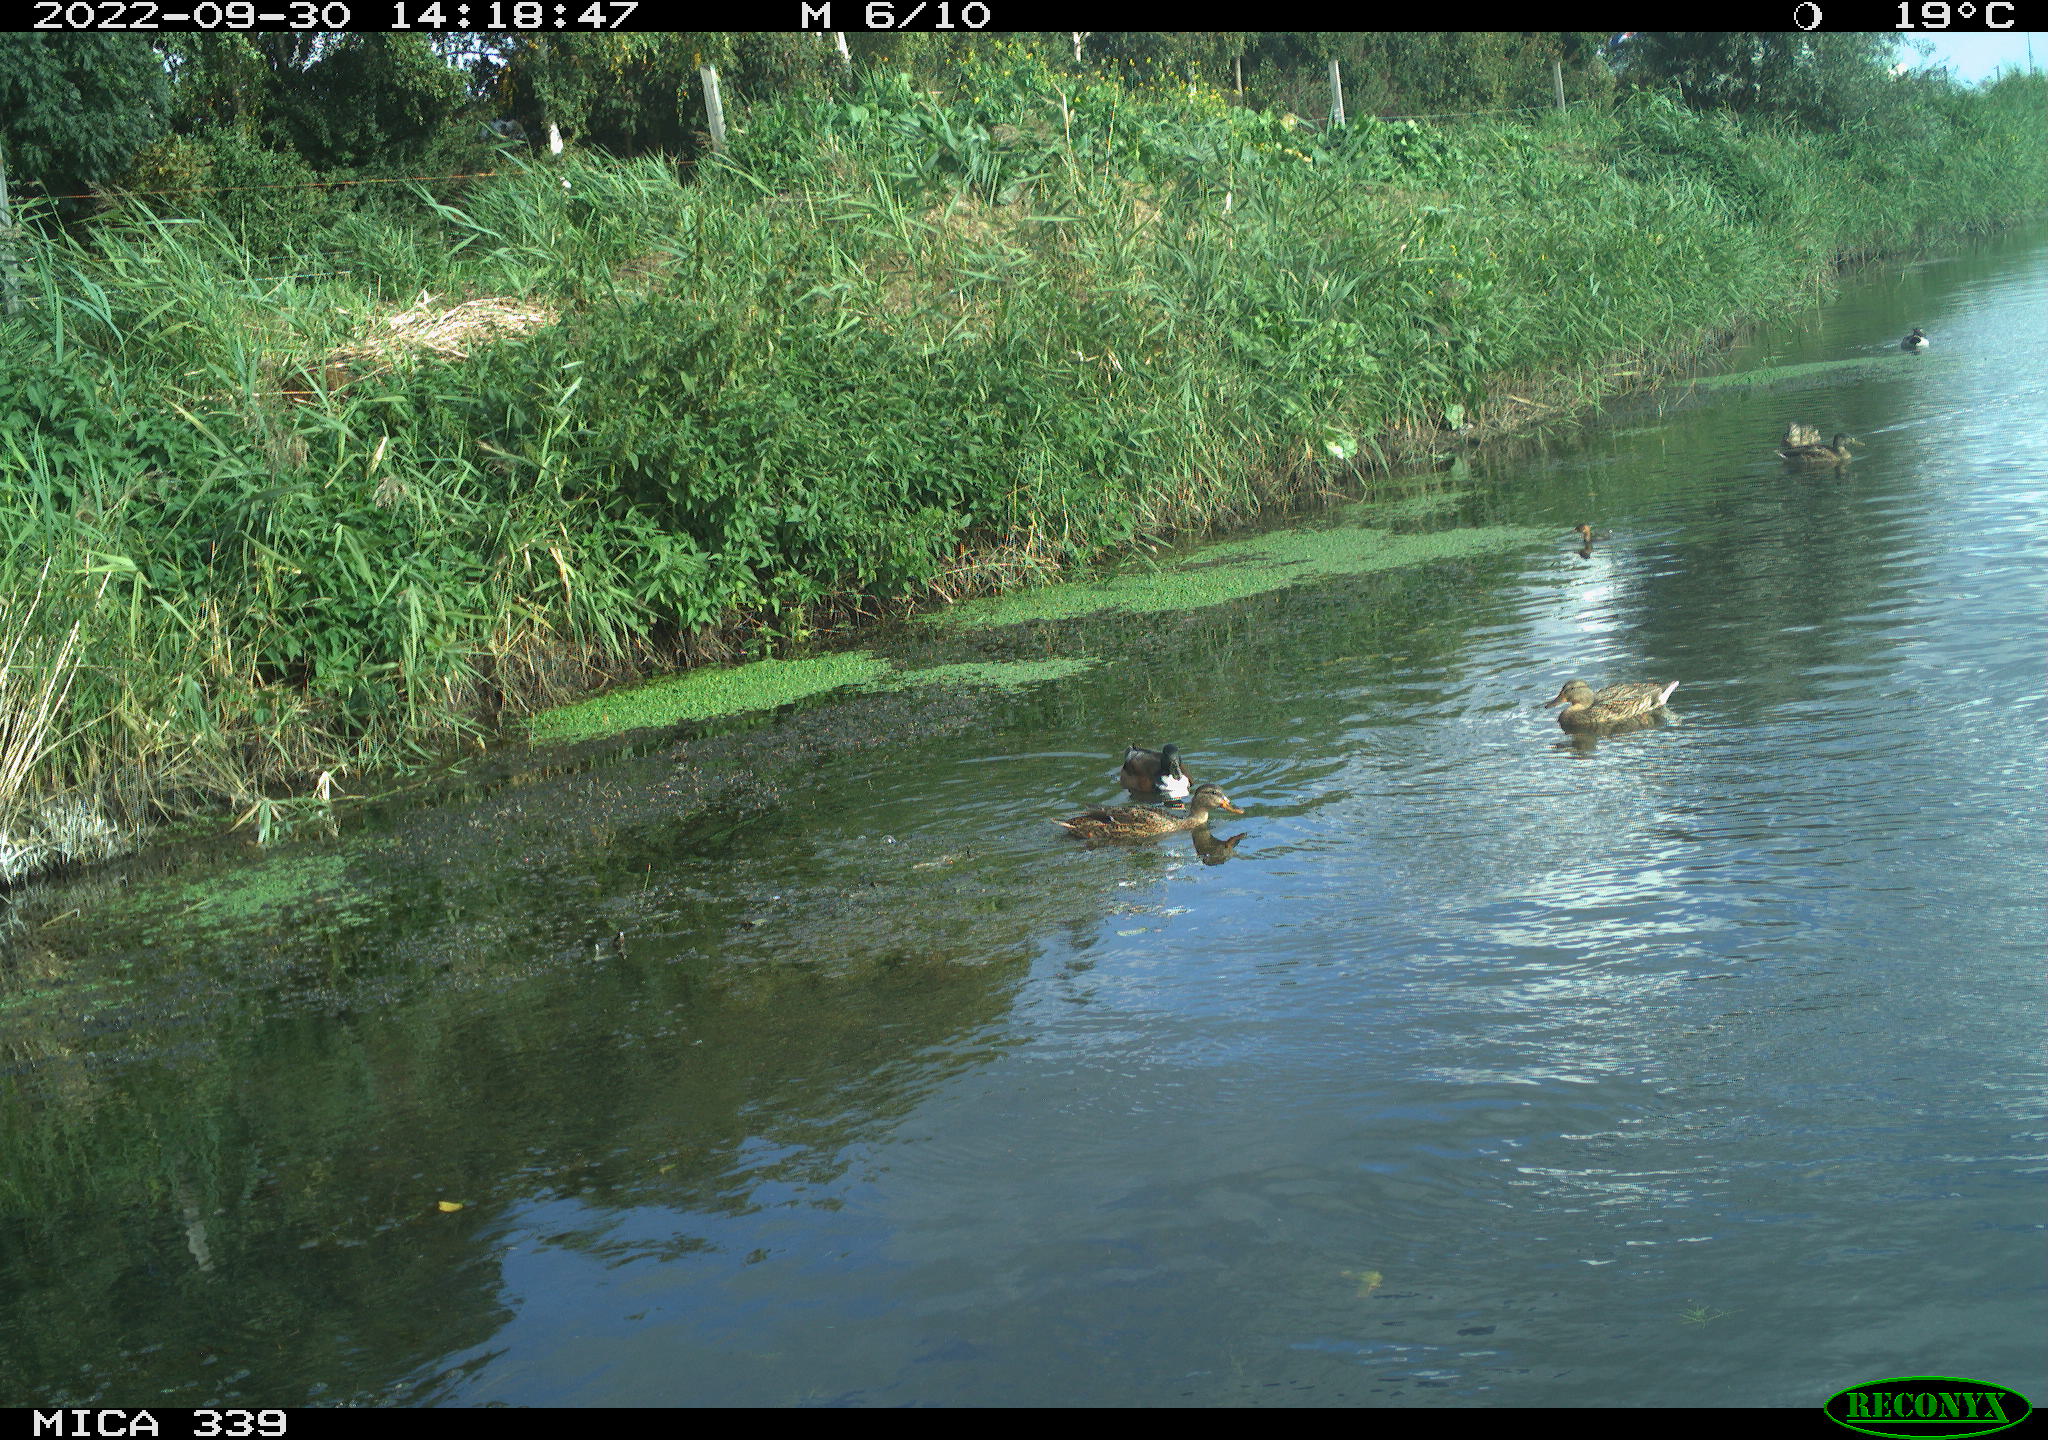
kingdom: Animalia
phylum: Chordata
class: Aves
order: Anseriformes
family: Anatidae
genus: Anas
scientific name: Anas platyrhynchos
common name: Mallard
